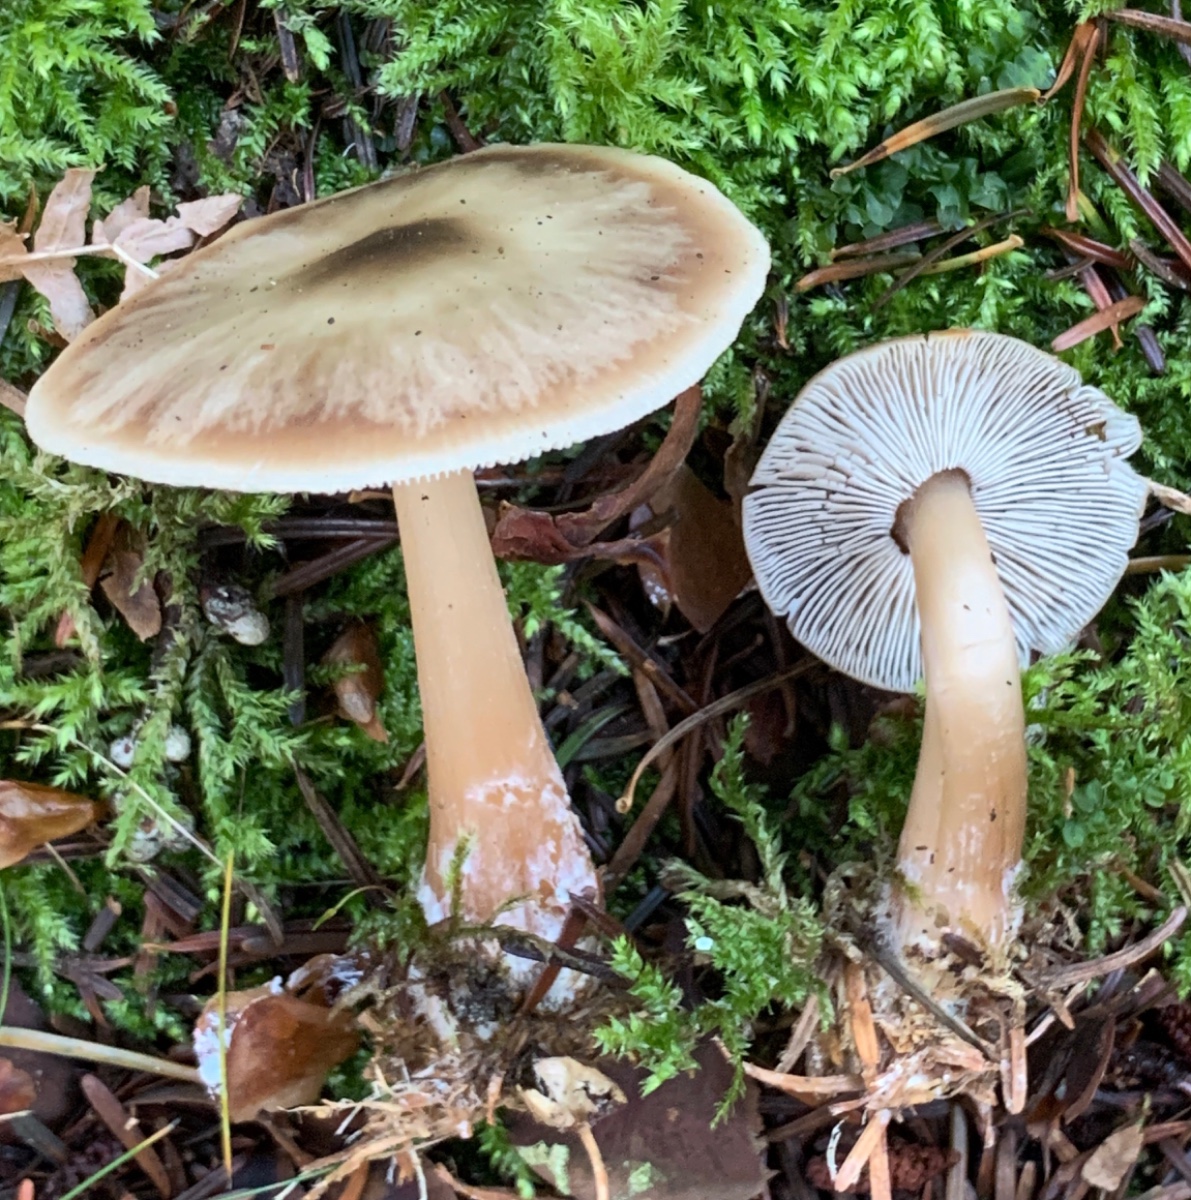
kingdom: Fungi
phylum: Basidiomycota
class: Agaricomycetes
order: Agaricales
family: Omphalotaceae
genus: Rhodocollybia
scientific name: Rhodocollybia asema
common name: horngrå fladhat
